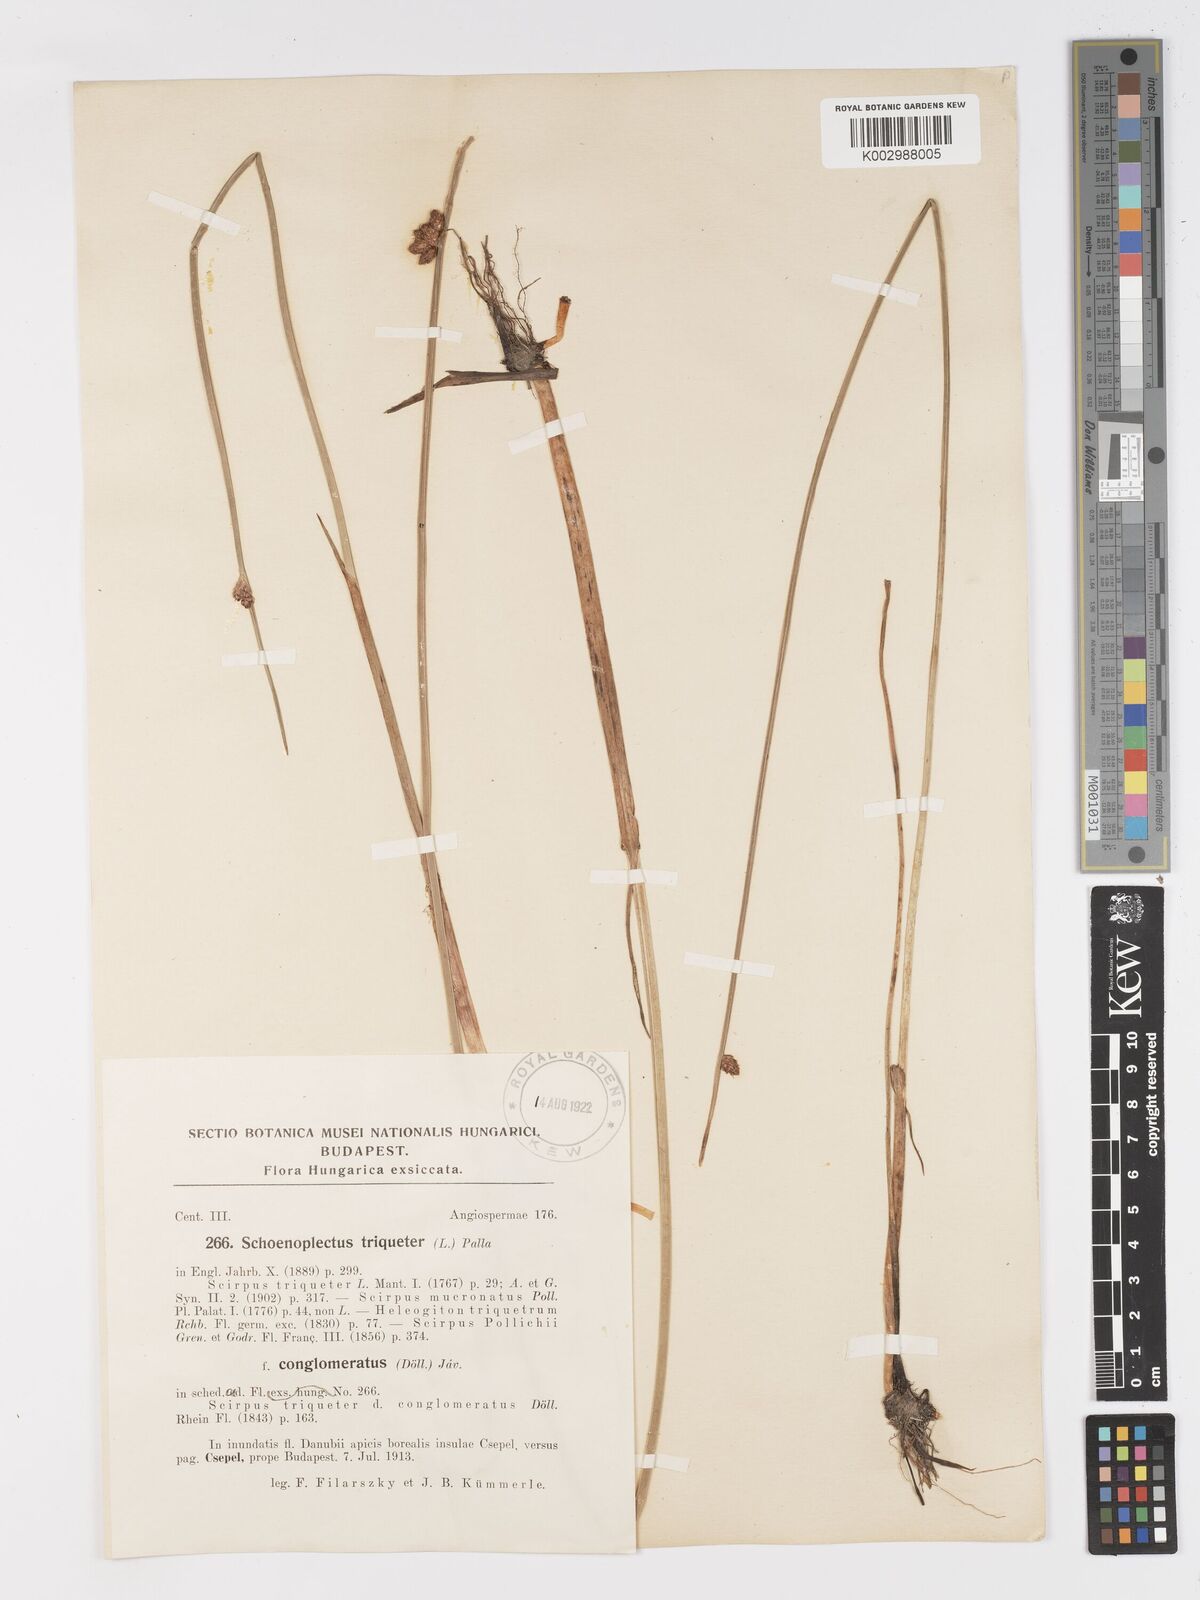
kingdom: Plantae
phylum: Tracheophyta
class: Liliopsida
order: Poales
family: Cyperaceae
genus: Schoenoplectus
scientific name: Schoenoplectus triqueter
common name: Triangular club-rush
